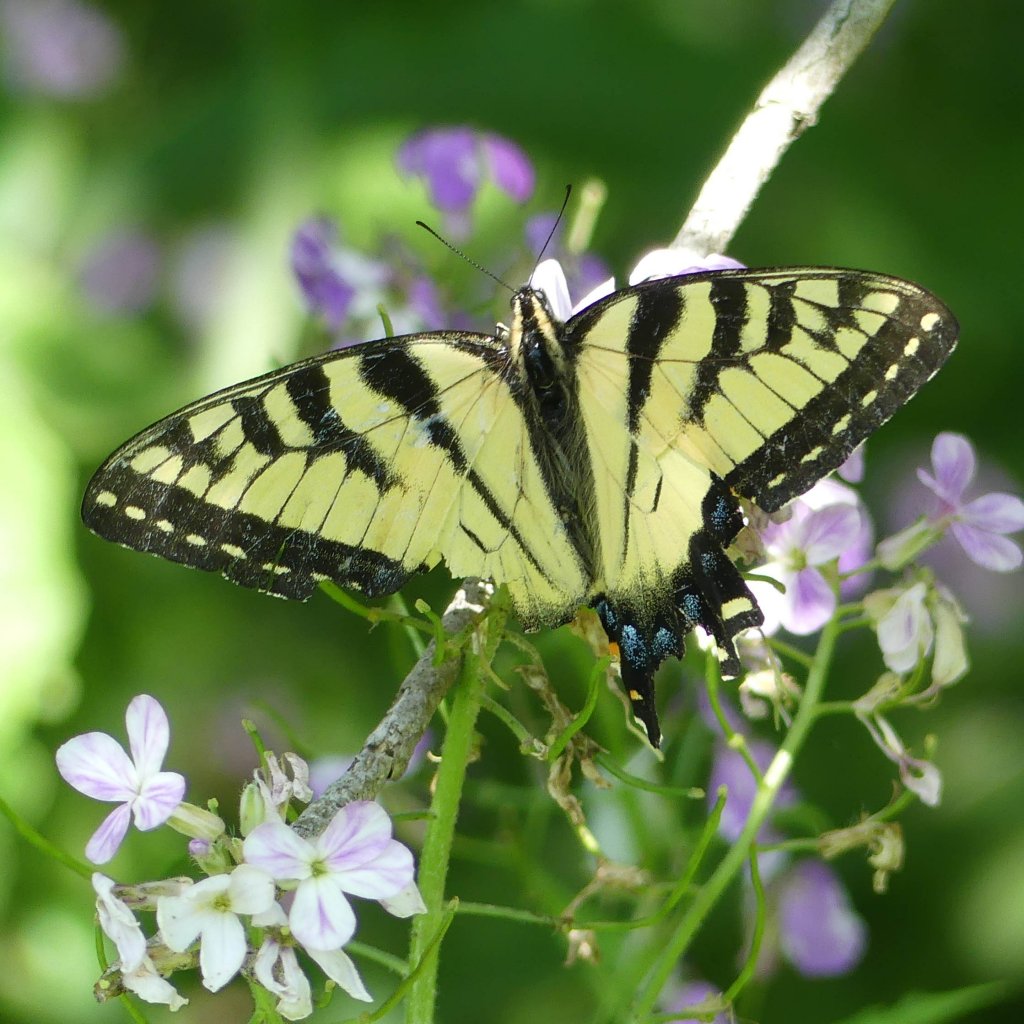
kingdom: Animalia
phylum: Arthropoda
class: Insecta
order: Lepidoptera
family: Papilionidae
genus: Pterourus
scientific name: Pterourus glaucus
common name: Eastern Tiger Swallowtail
